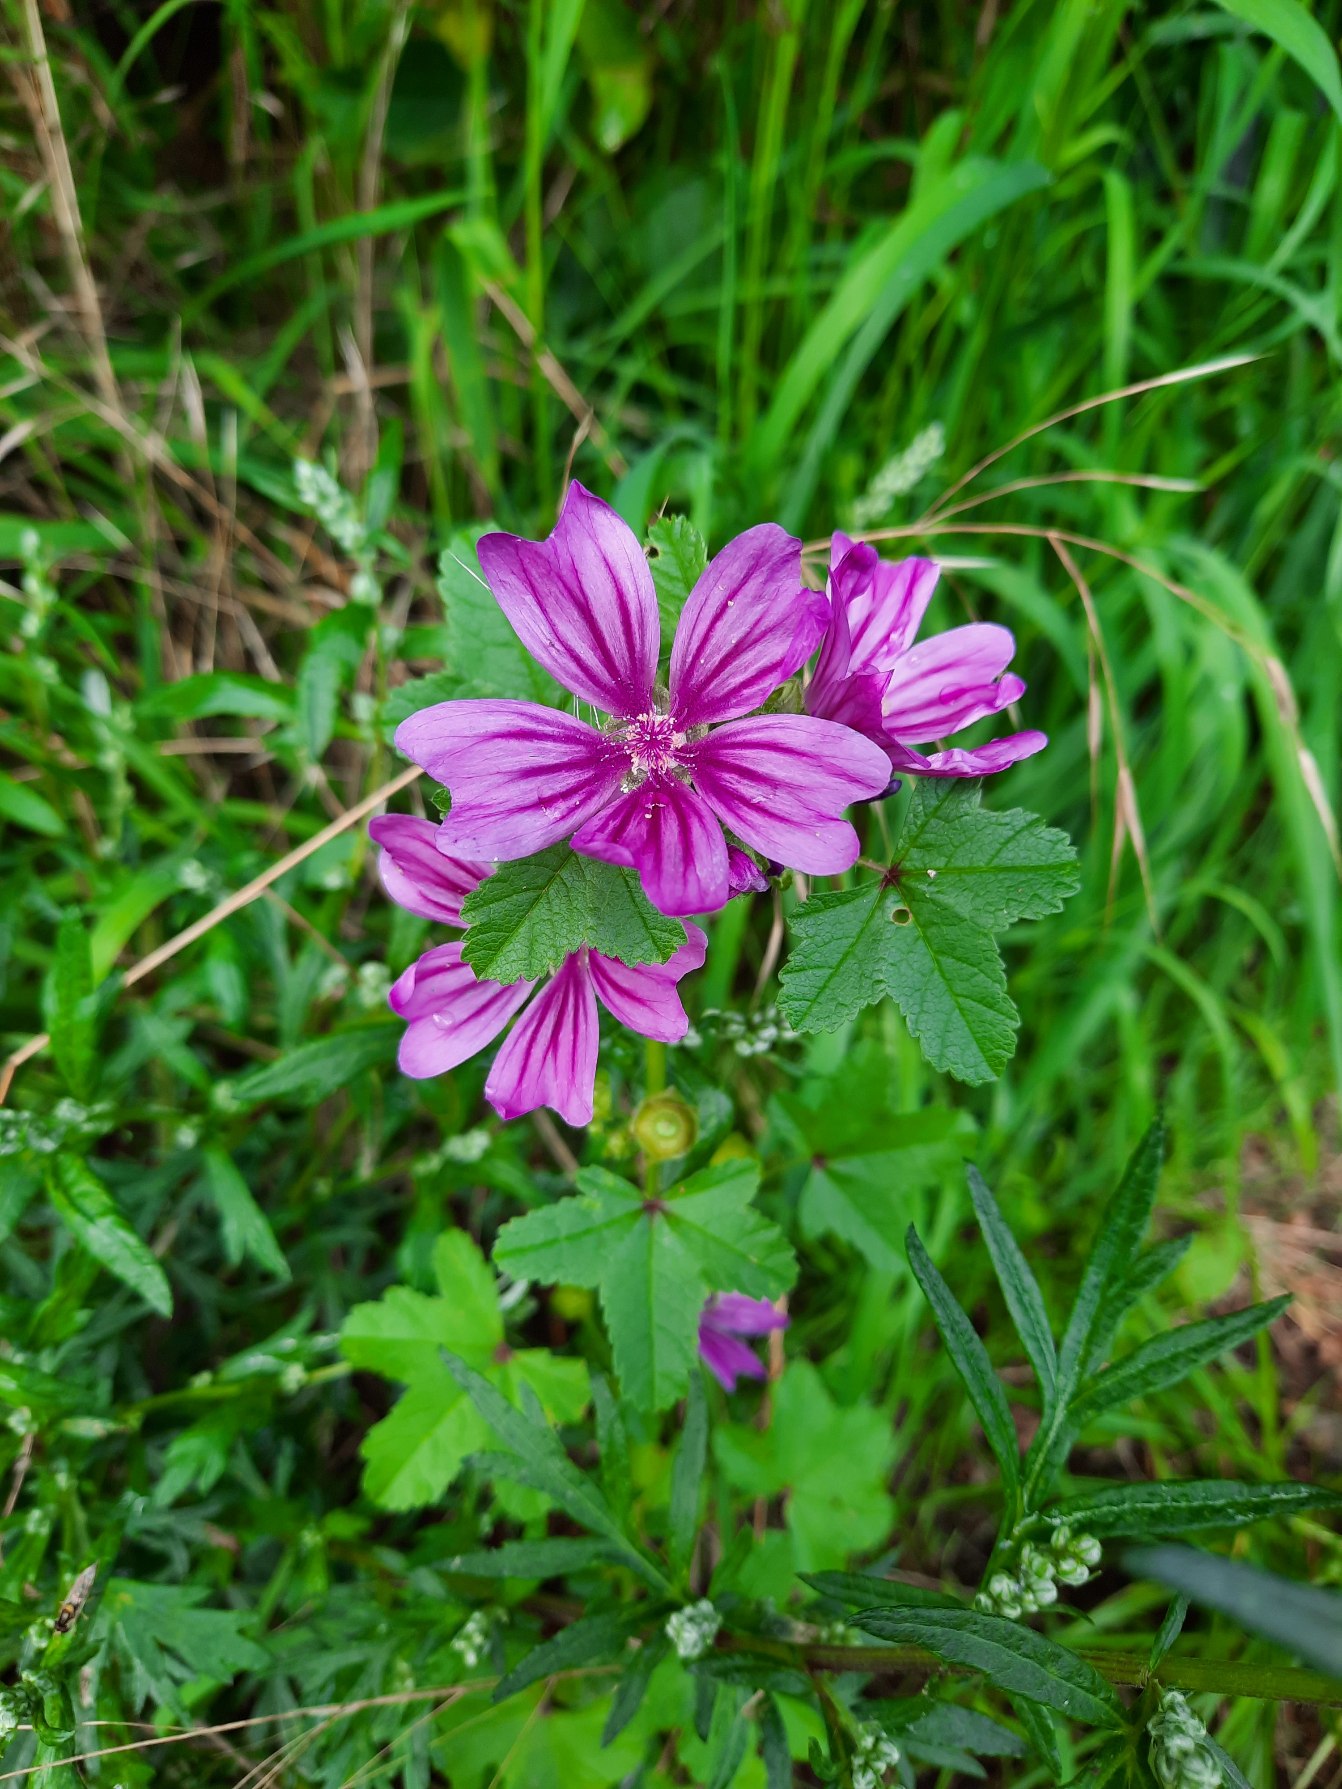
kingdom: Plantae
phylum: Tracheophyta
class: Magnoliopsida
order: Malvales
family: Malvaceae
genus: Malva
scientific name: Malva sylvestris
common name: Stor katost
